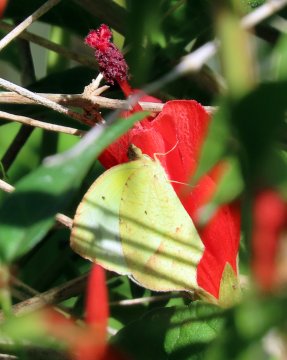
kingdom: Animalia
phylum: Arthropoda
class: Insecta
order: Lepidoptera
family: Pieridae
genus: Eurema
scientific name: Eurema mexicana
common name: Mexican Yellow
